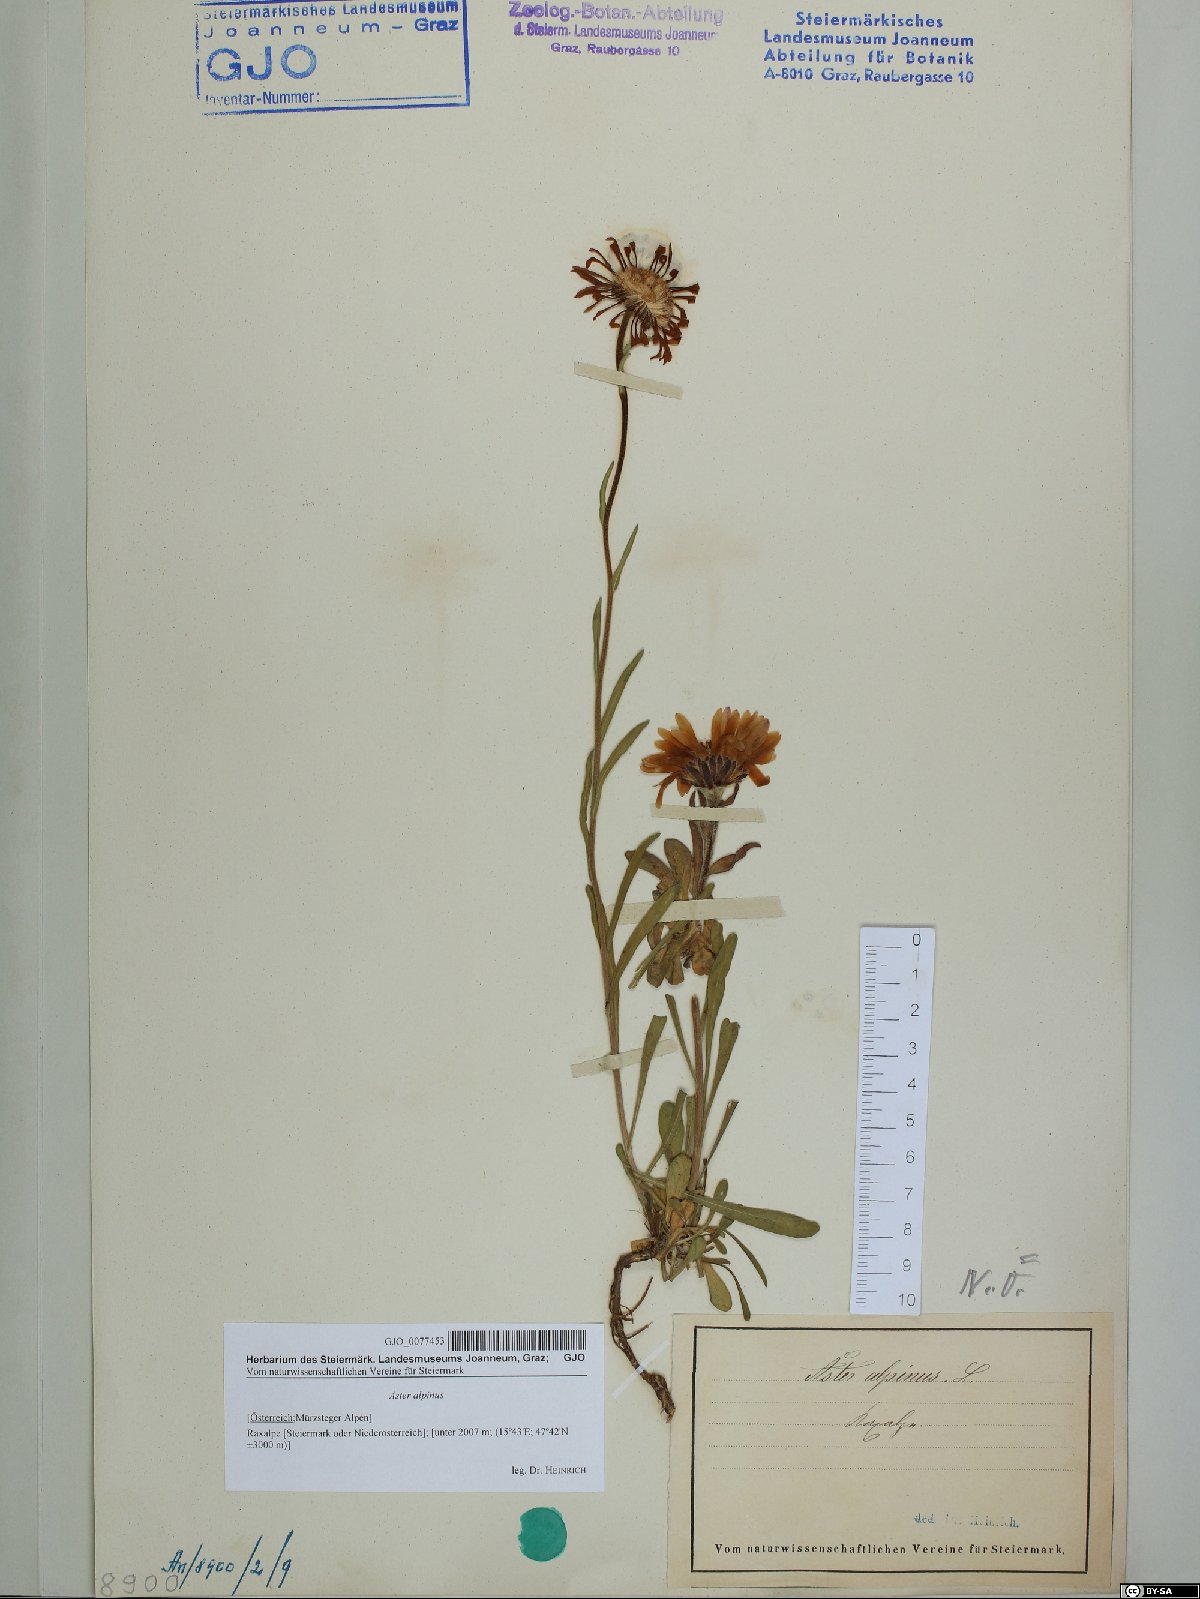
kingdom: Plantae
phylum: Tracheophyta
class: Magnoliopsida
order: Asterales
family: Asteraceae
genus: Aster
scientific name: Aster alpinus
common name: Alpine aster
